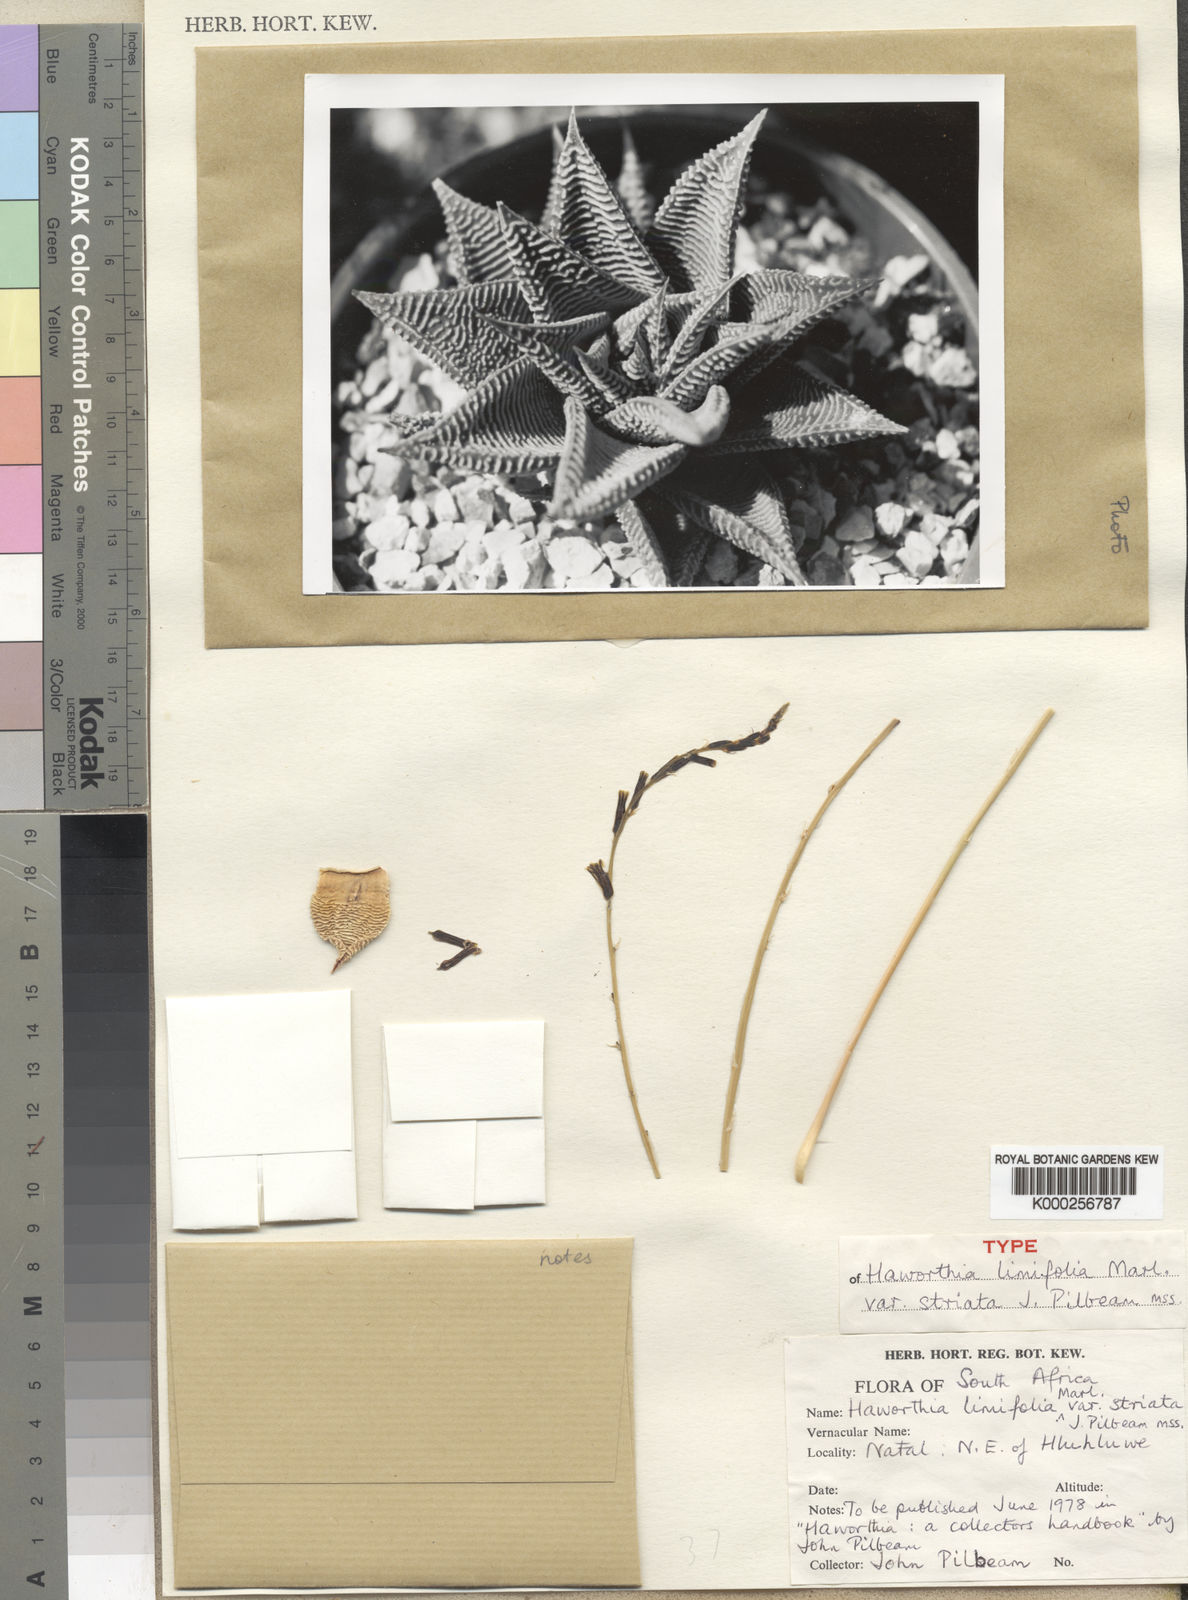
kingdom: Plantae
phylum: Tracheophyta
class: Liliopsida
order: Asparagales
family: Asphodelaceae
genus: Haworthiopsis
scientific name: Haworthiopsis limifolia
